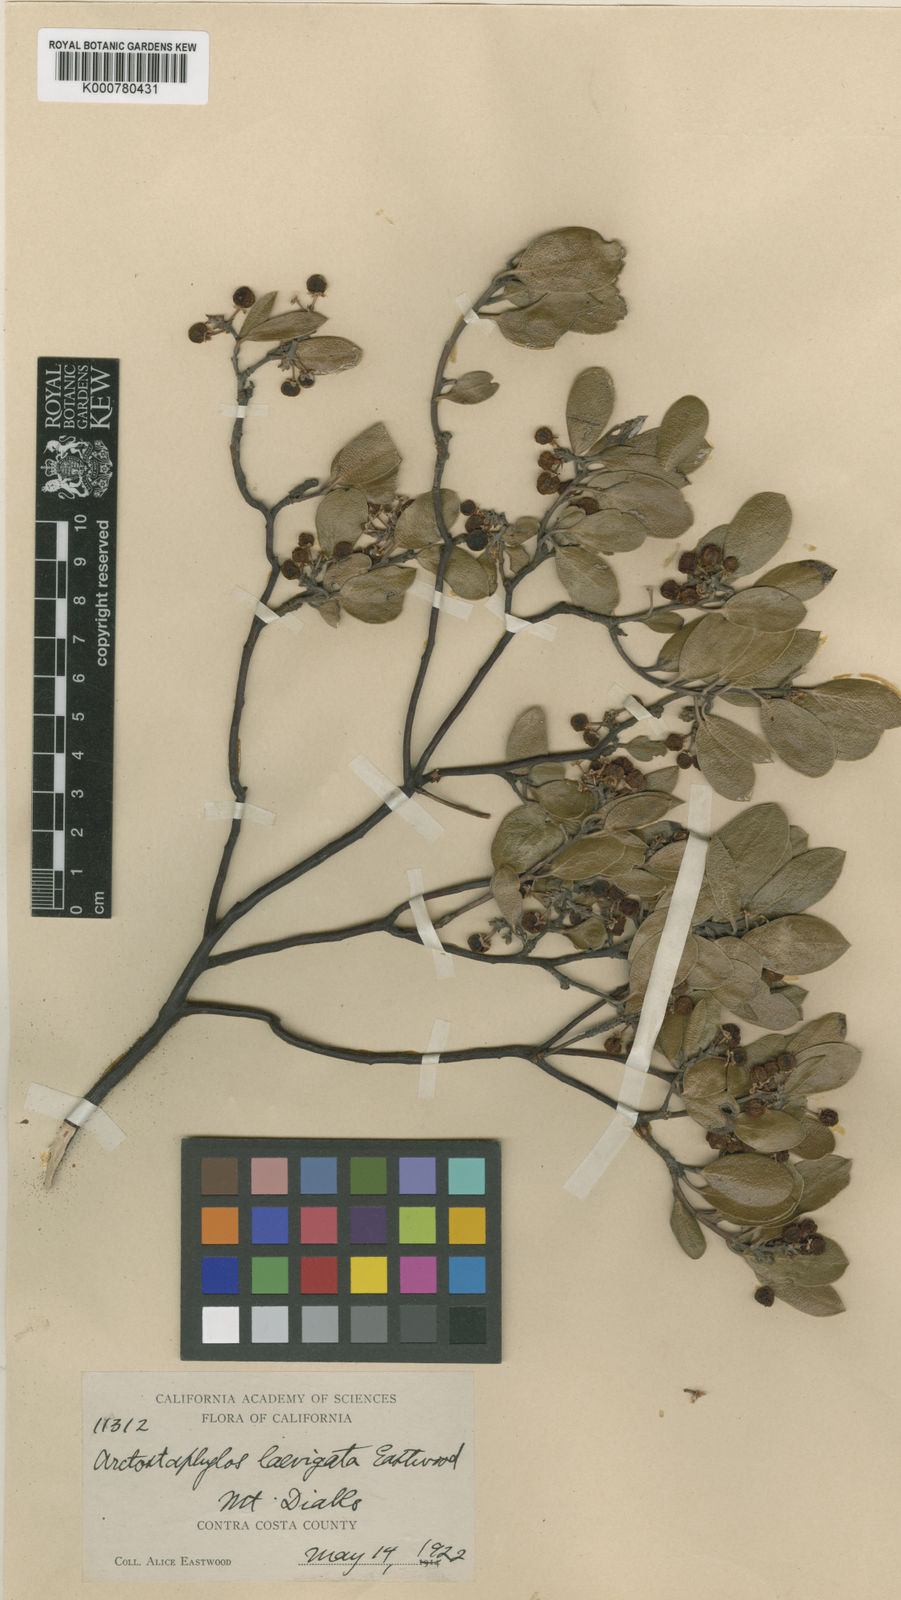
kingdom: Plantae
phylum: Tracheophyta
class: Magnoliopsida
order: Ericales
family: Ericaceae
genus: Arctostaphylos
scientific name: Arctostaphylos manzanita
